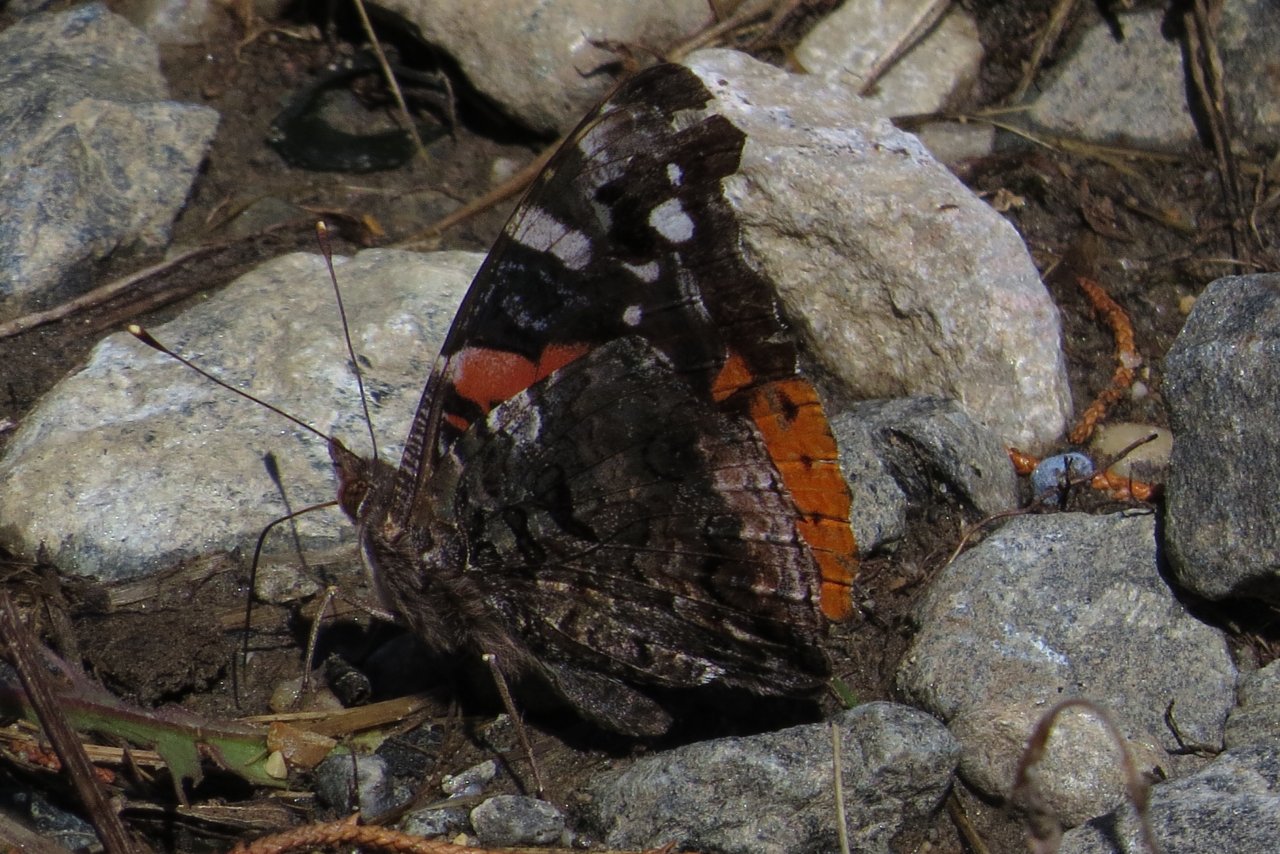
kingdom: Animalia
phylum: Arthropoda
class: Insecta
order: Lepidoptera
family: Nymphalidae
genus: Vanessa
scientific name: Vanessa atalanta
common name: Red Admiral
